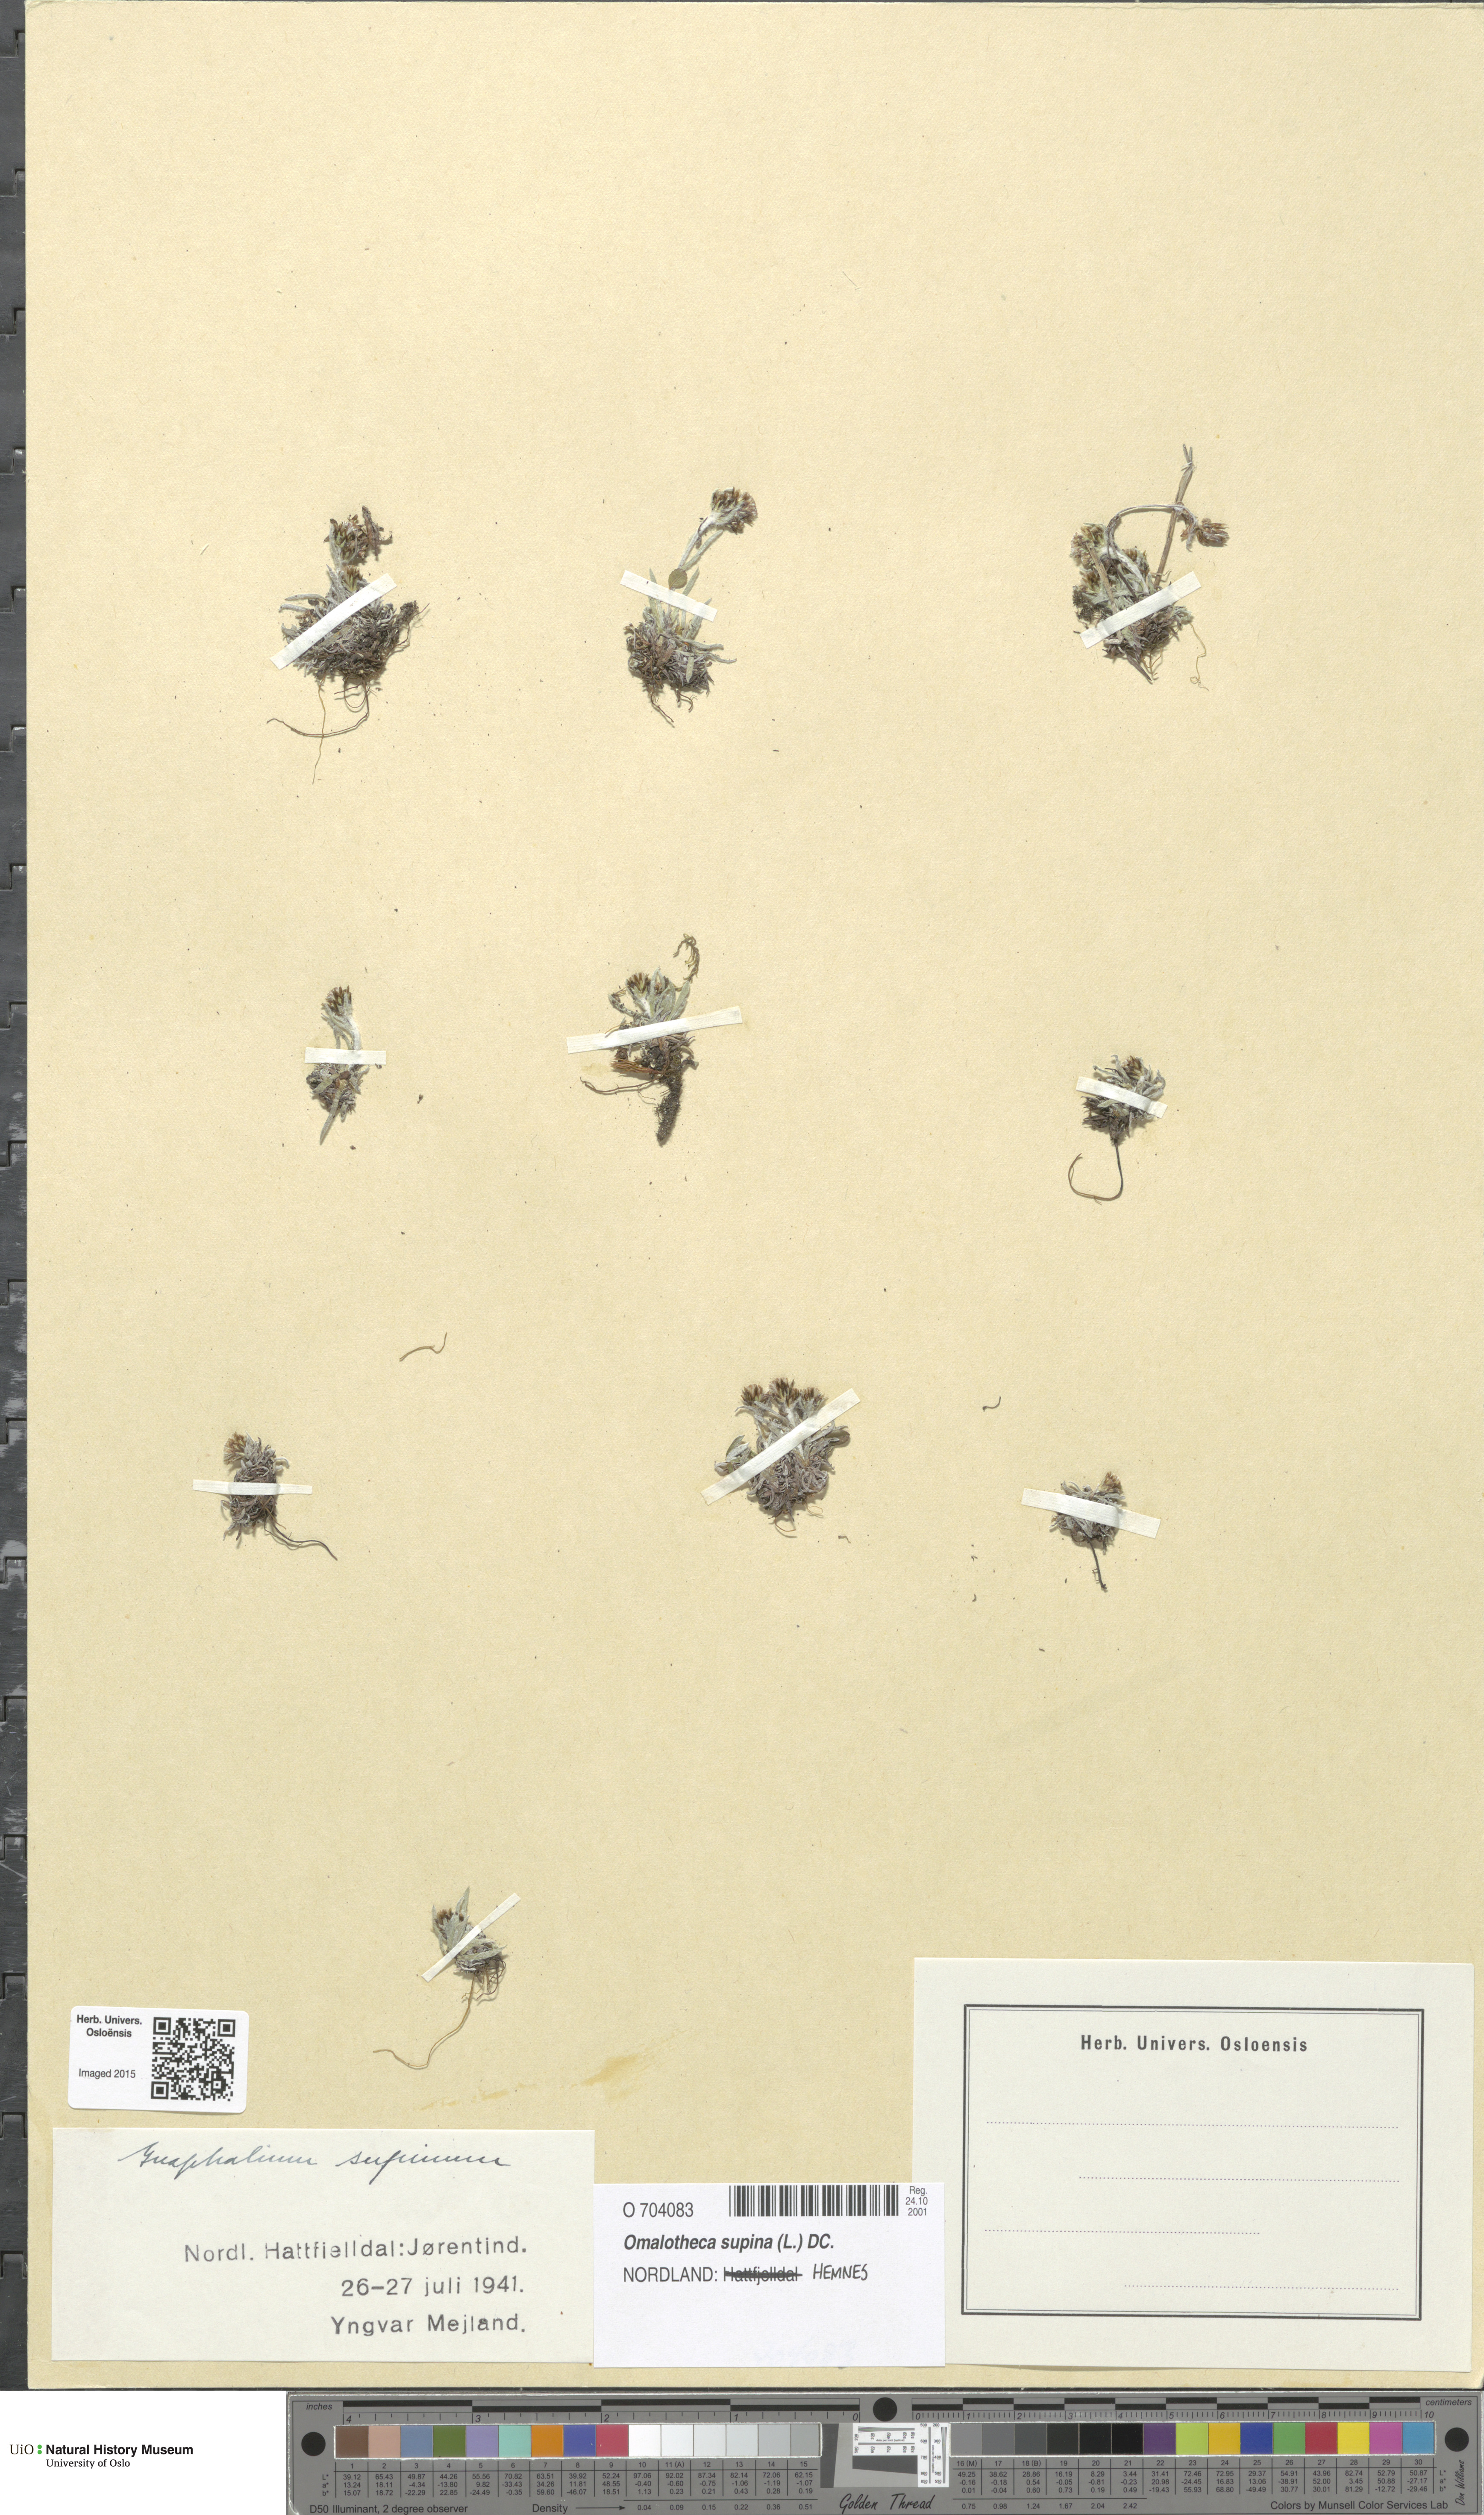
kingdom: Plantae
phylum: Tracheophyta
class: Magnoliopsida
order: Asterales
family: Asteraceae
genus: Omalotheca
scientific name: Omalotheca supina
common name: Alpine arctic-cudweed
